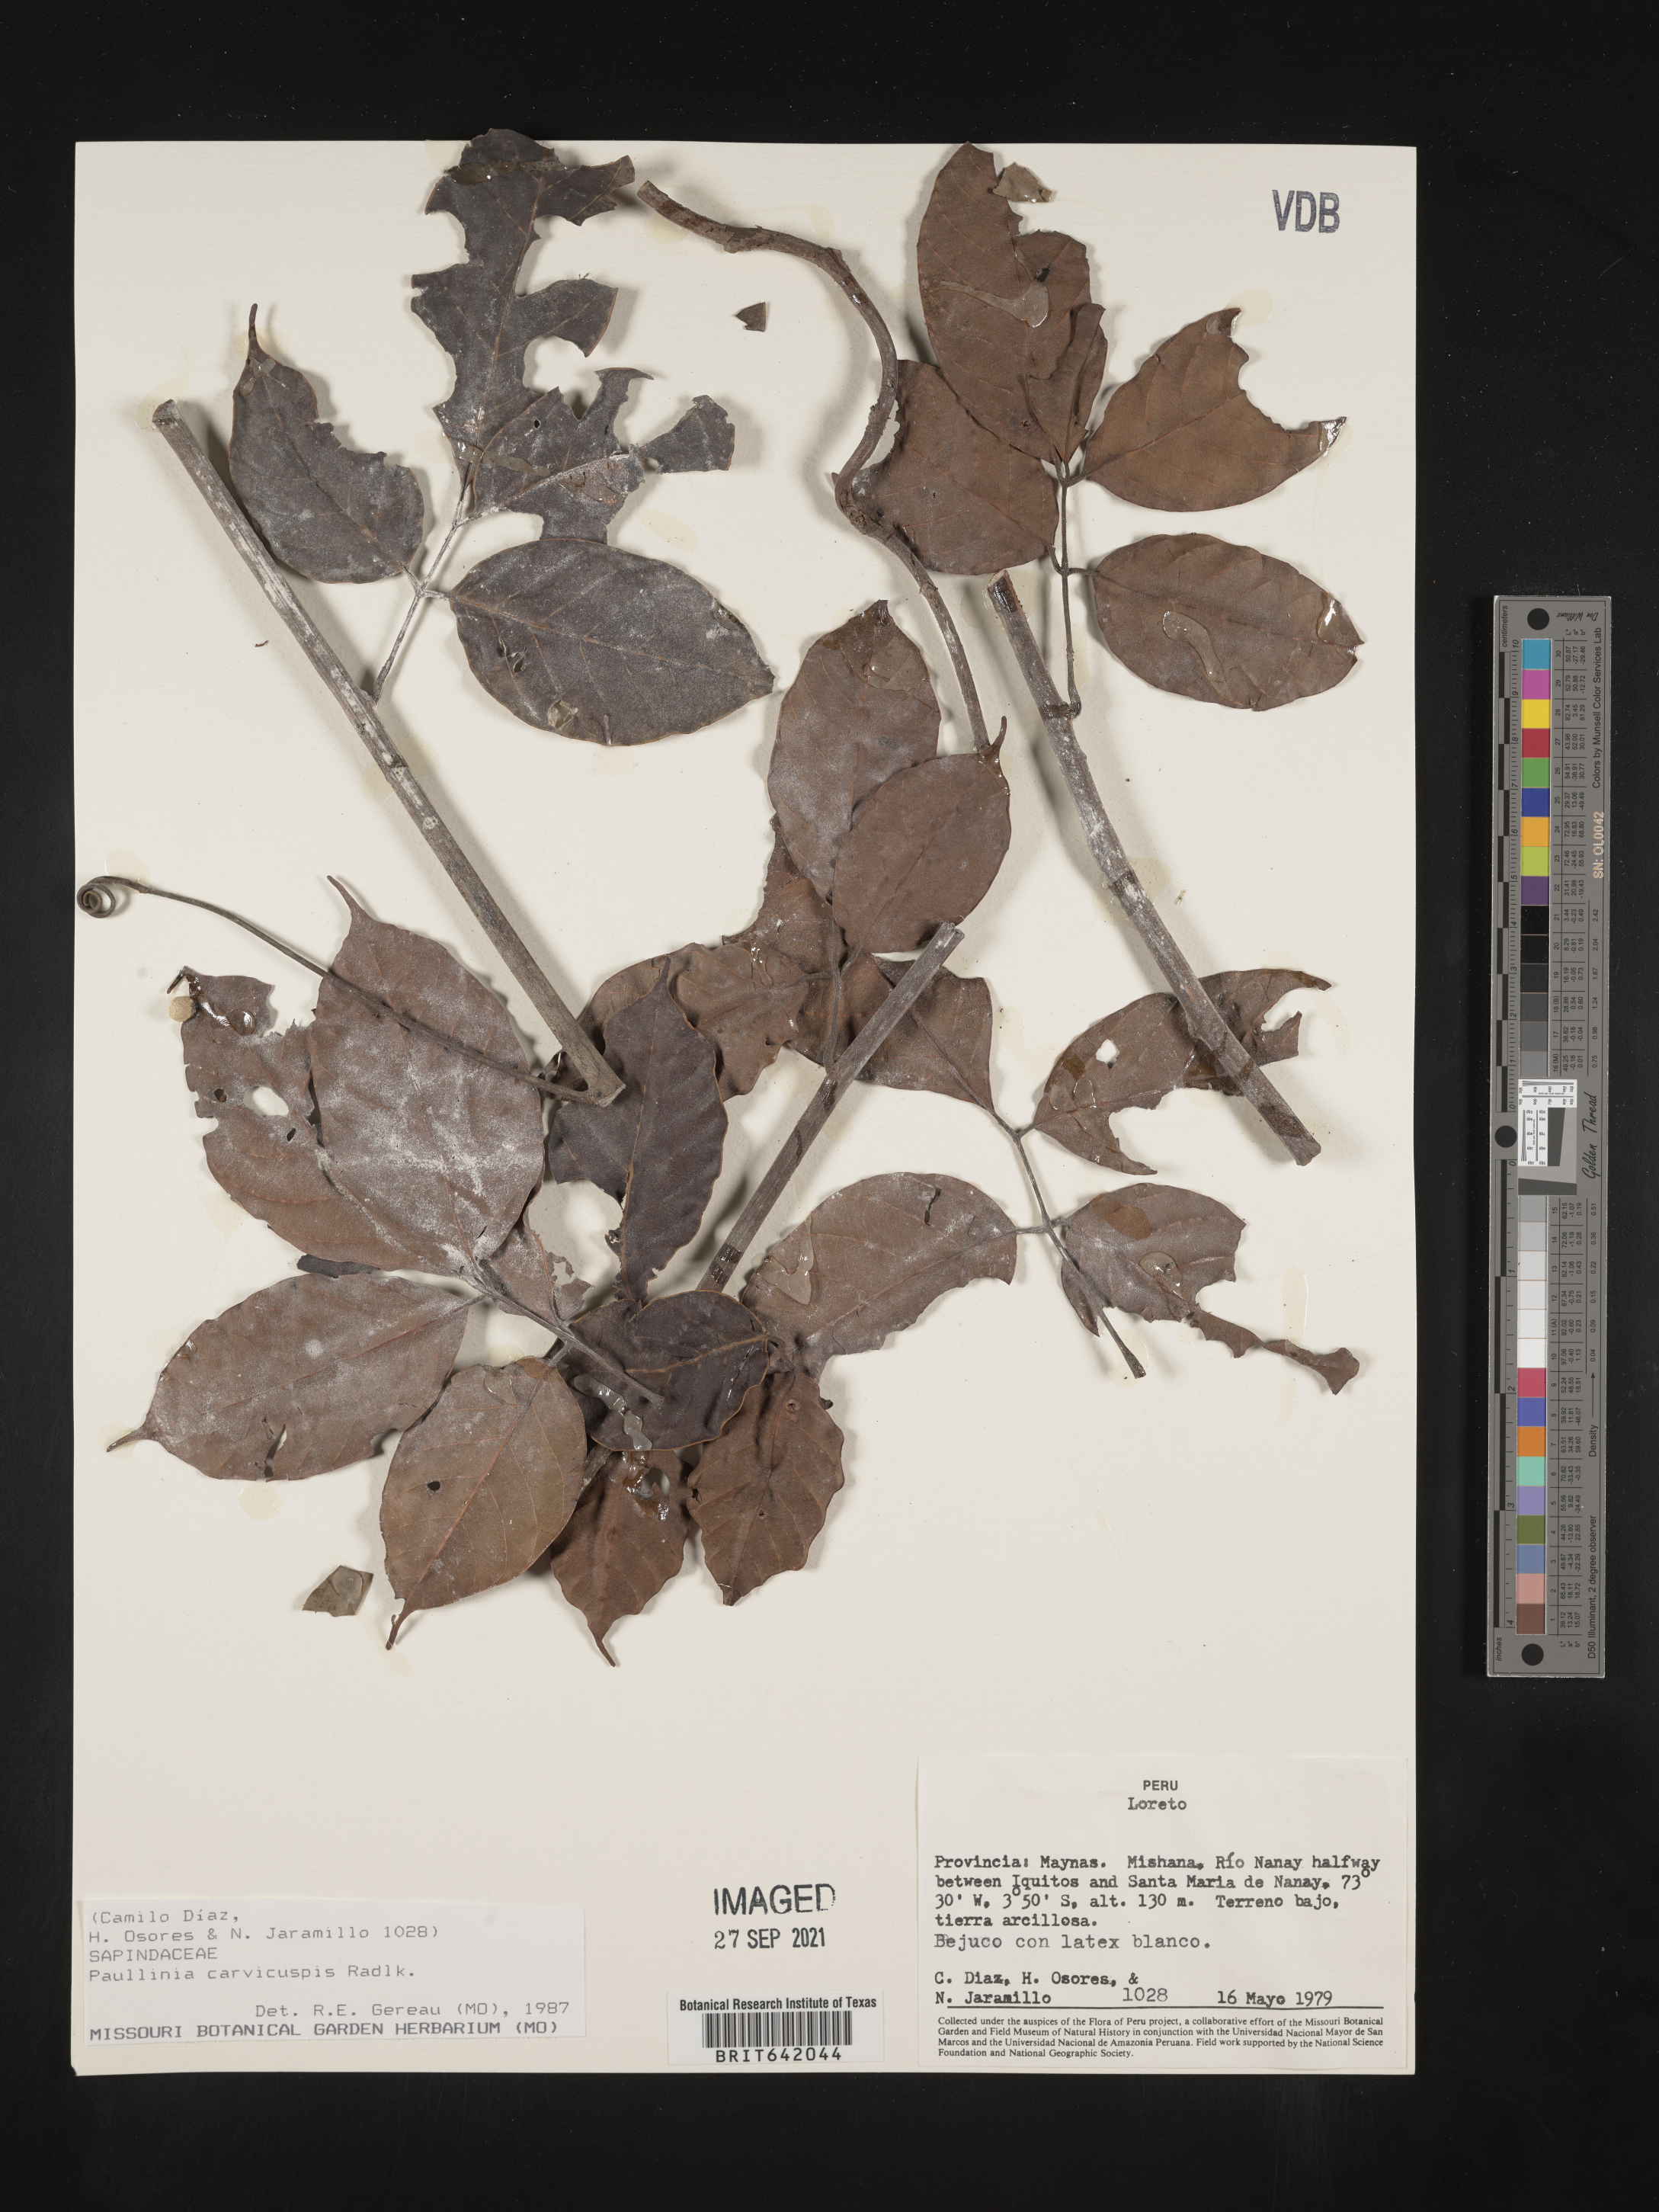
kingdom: Plantae
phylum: Tracheophyta
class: Magnoliopsida
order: Sapindales
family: Sapindaceae
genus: Paullinia
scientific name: Paullinia
